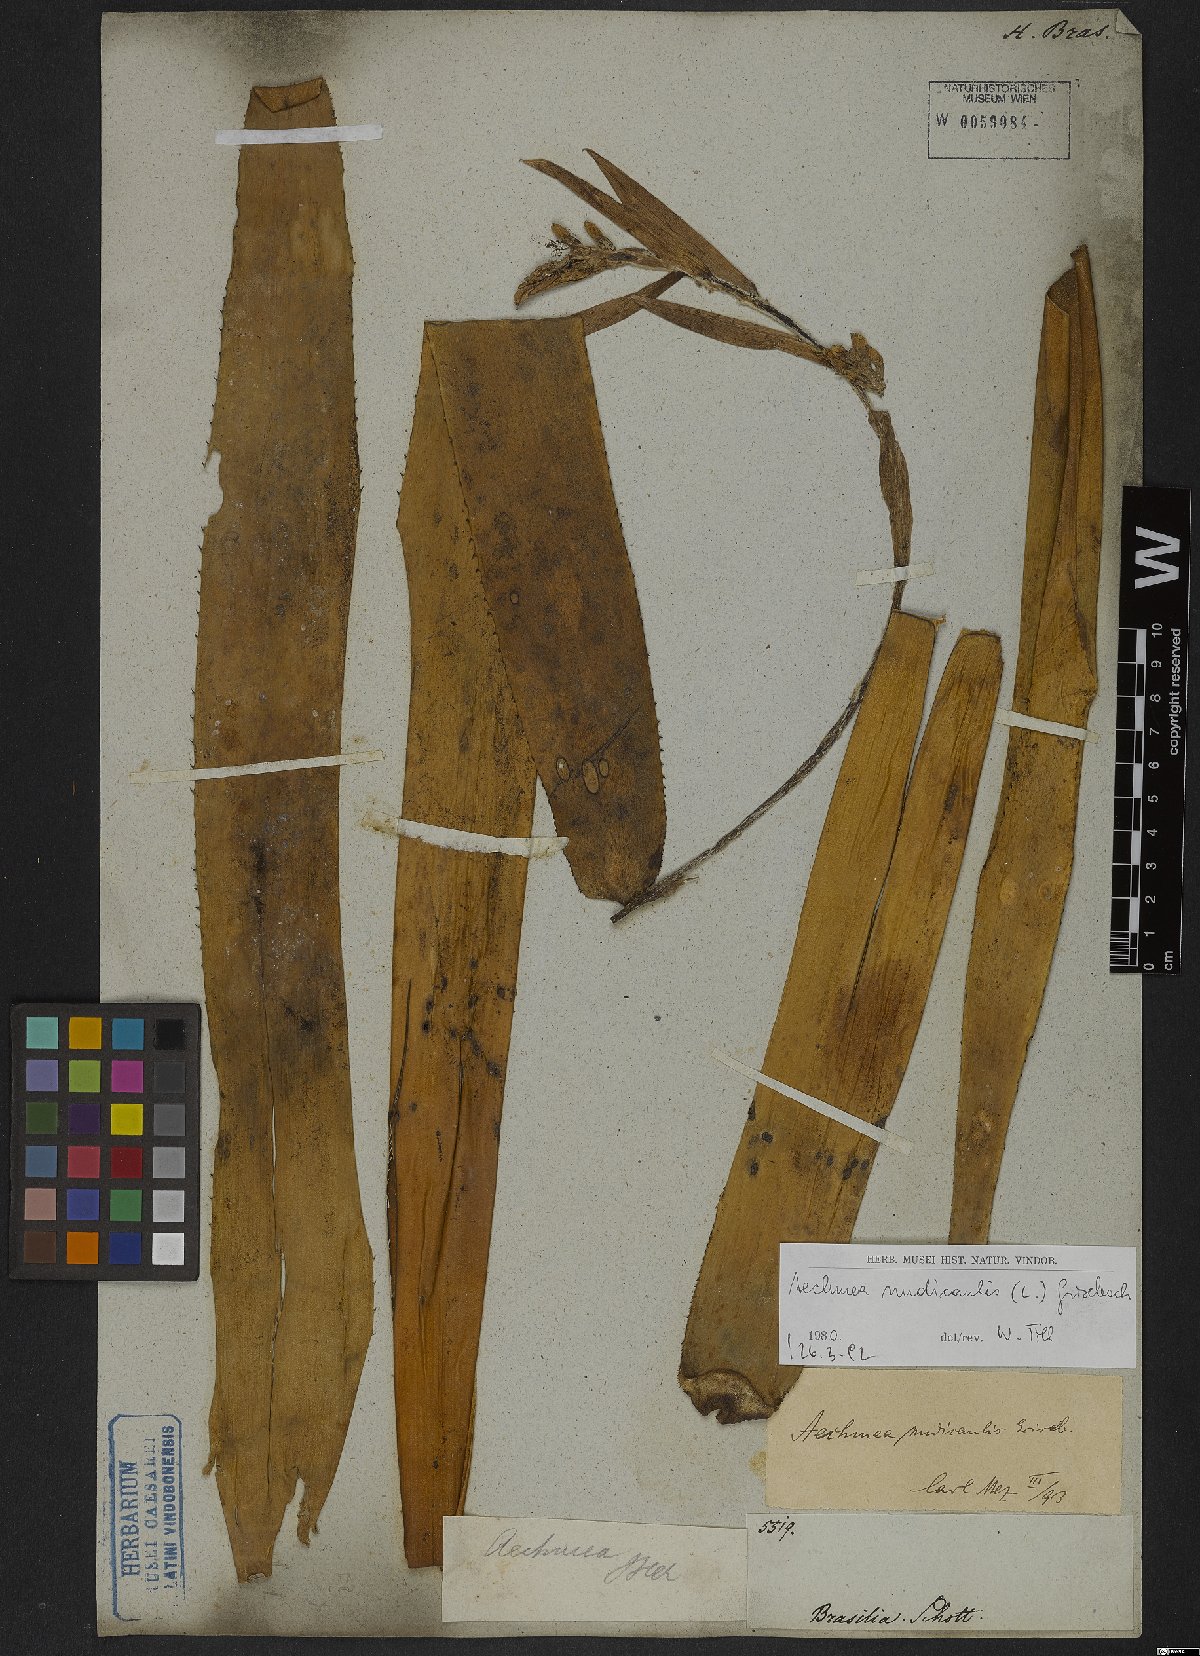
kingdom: Plantae
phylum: Tracheophyta
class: Liliopsida
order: Poales
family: Bromeliaceae
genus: Aechmea
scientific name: Aechmea nudicaulis
